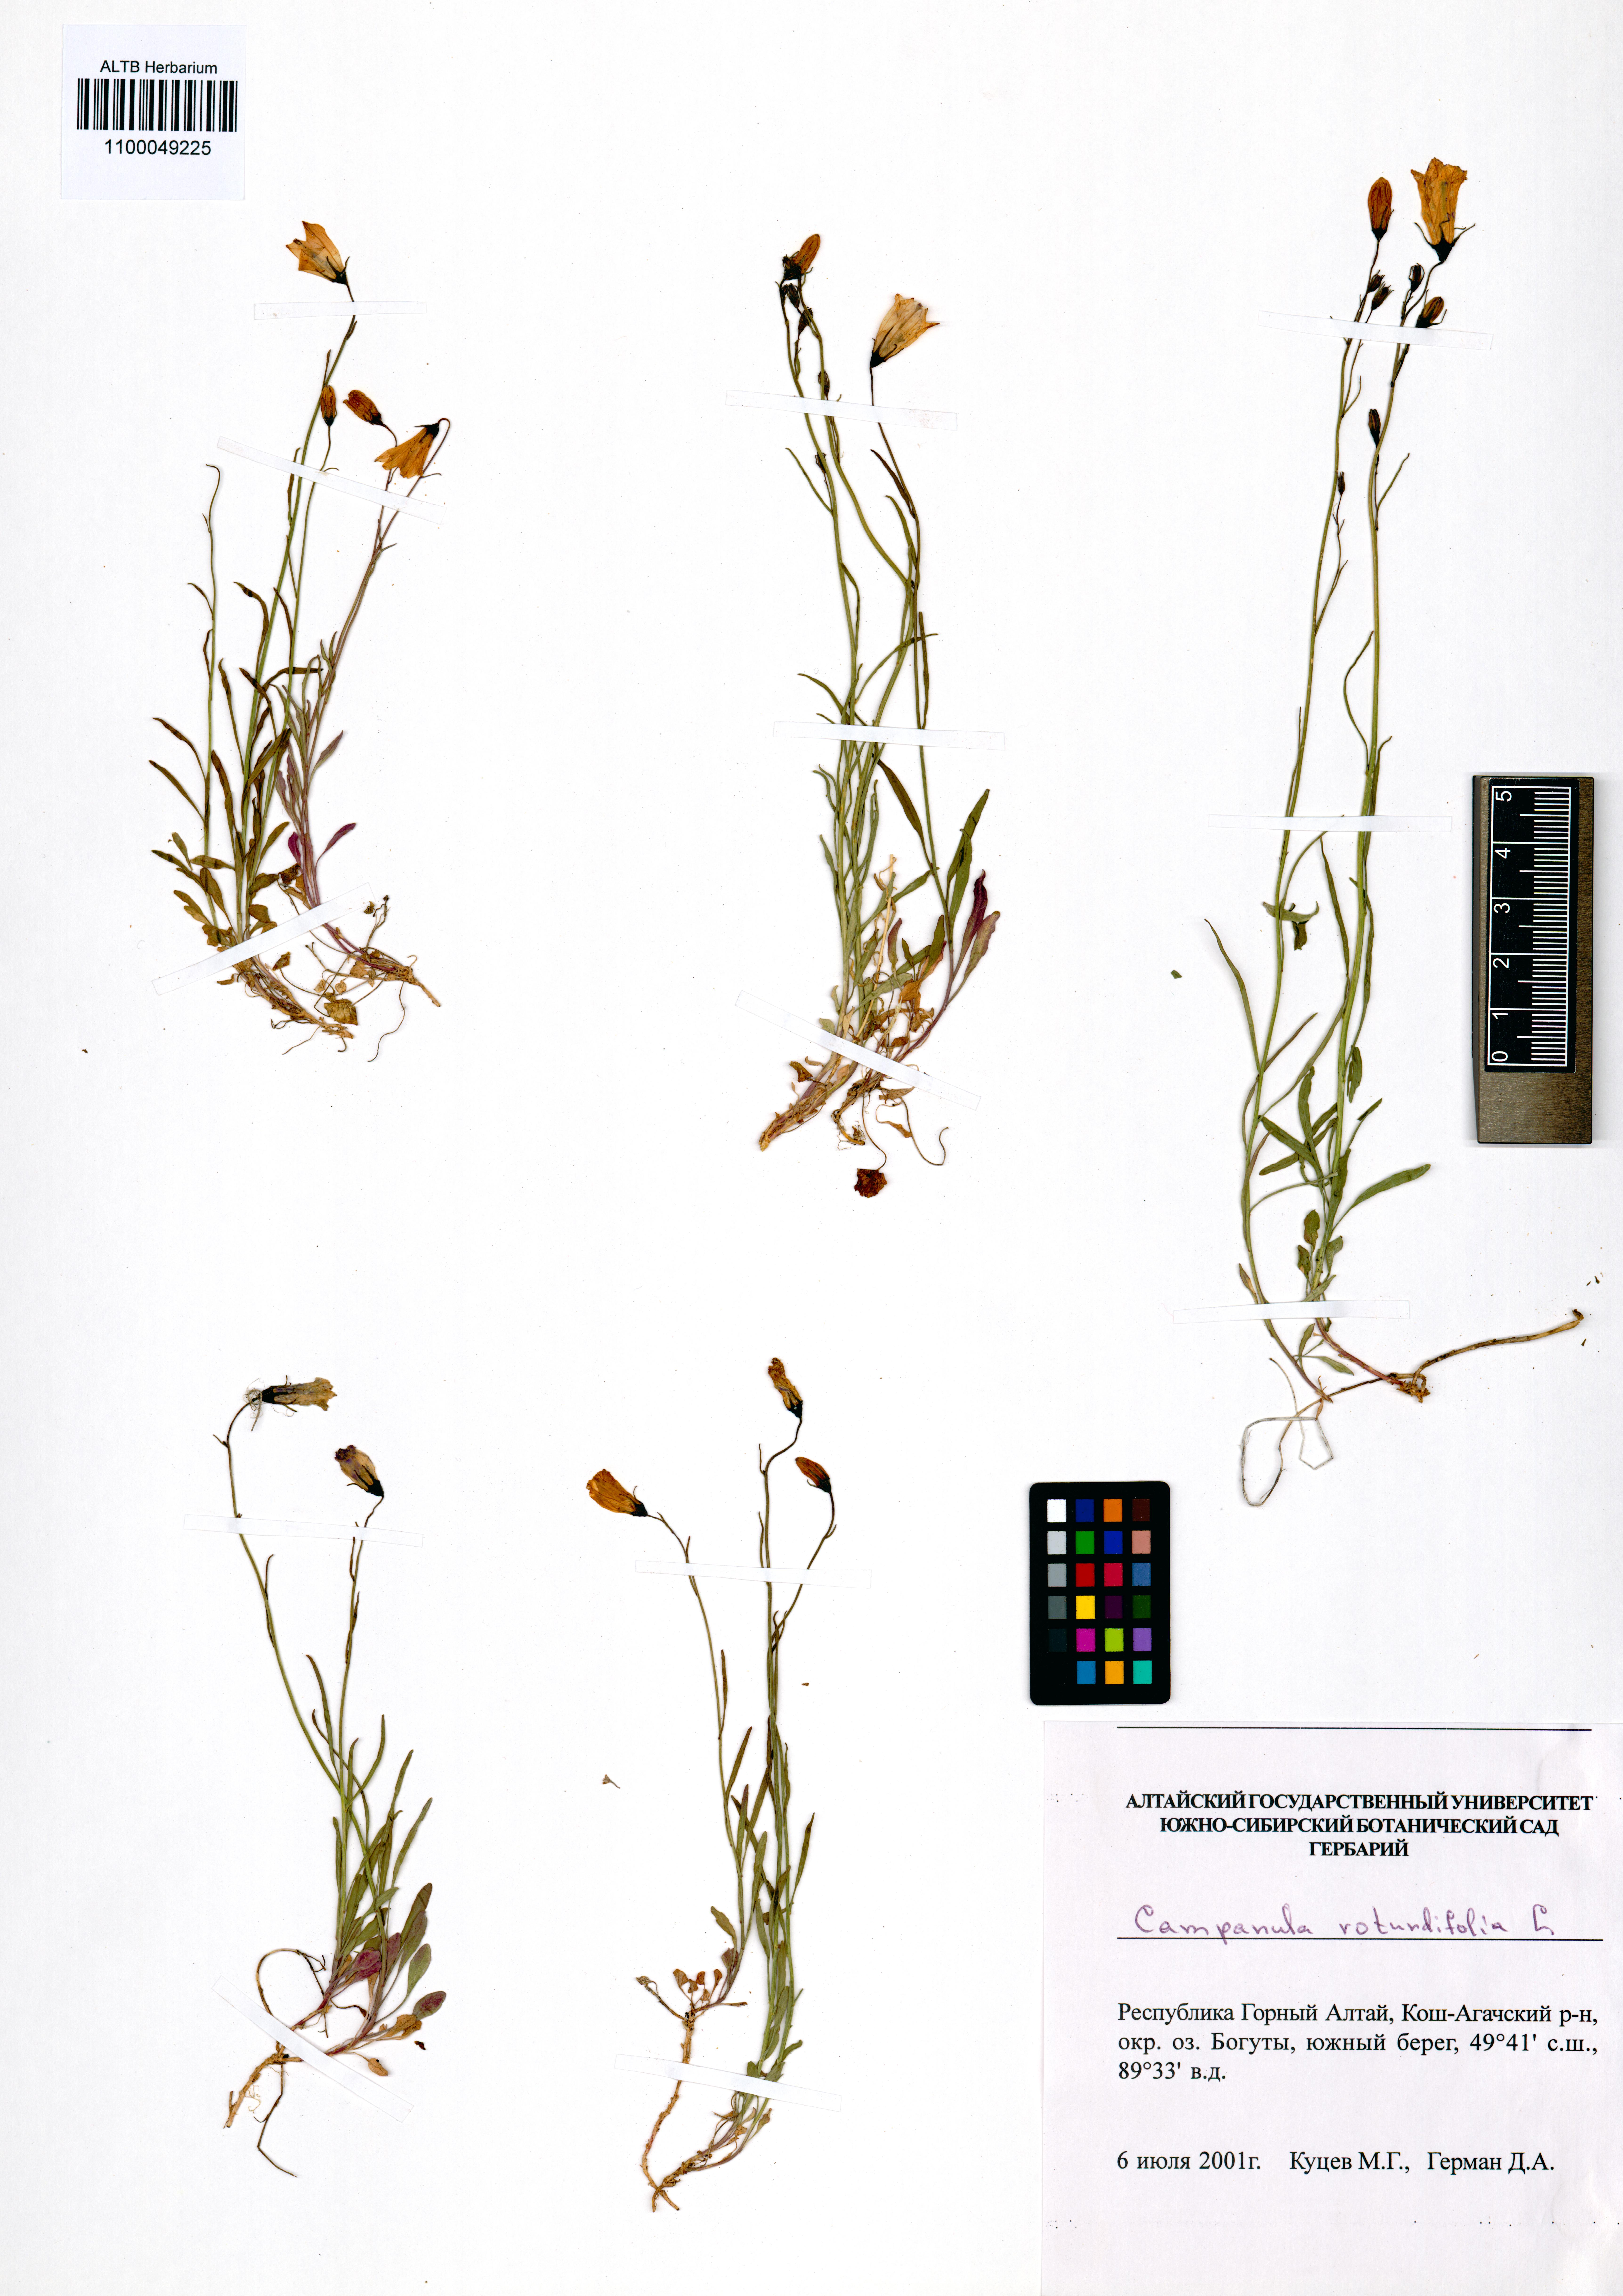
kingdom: Plantae
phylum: Tracheophyta
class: Magnoliopsida
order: Asterales
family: Campanulaceae
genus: Campanula
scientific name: Campanula rotundifolia
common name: Harebell
